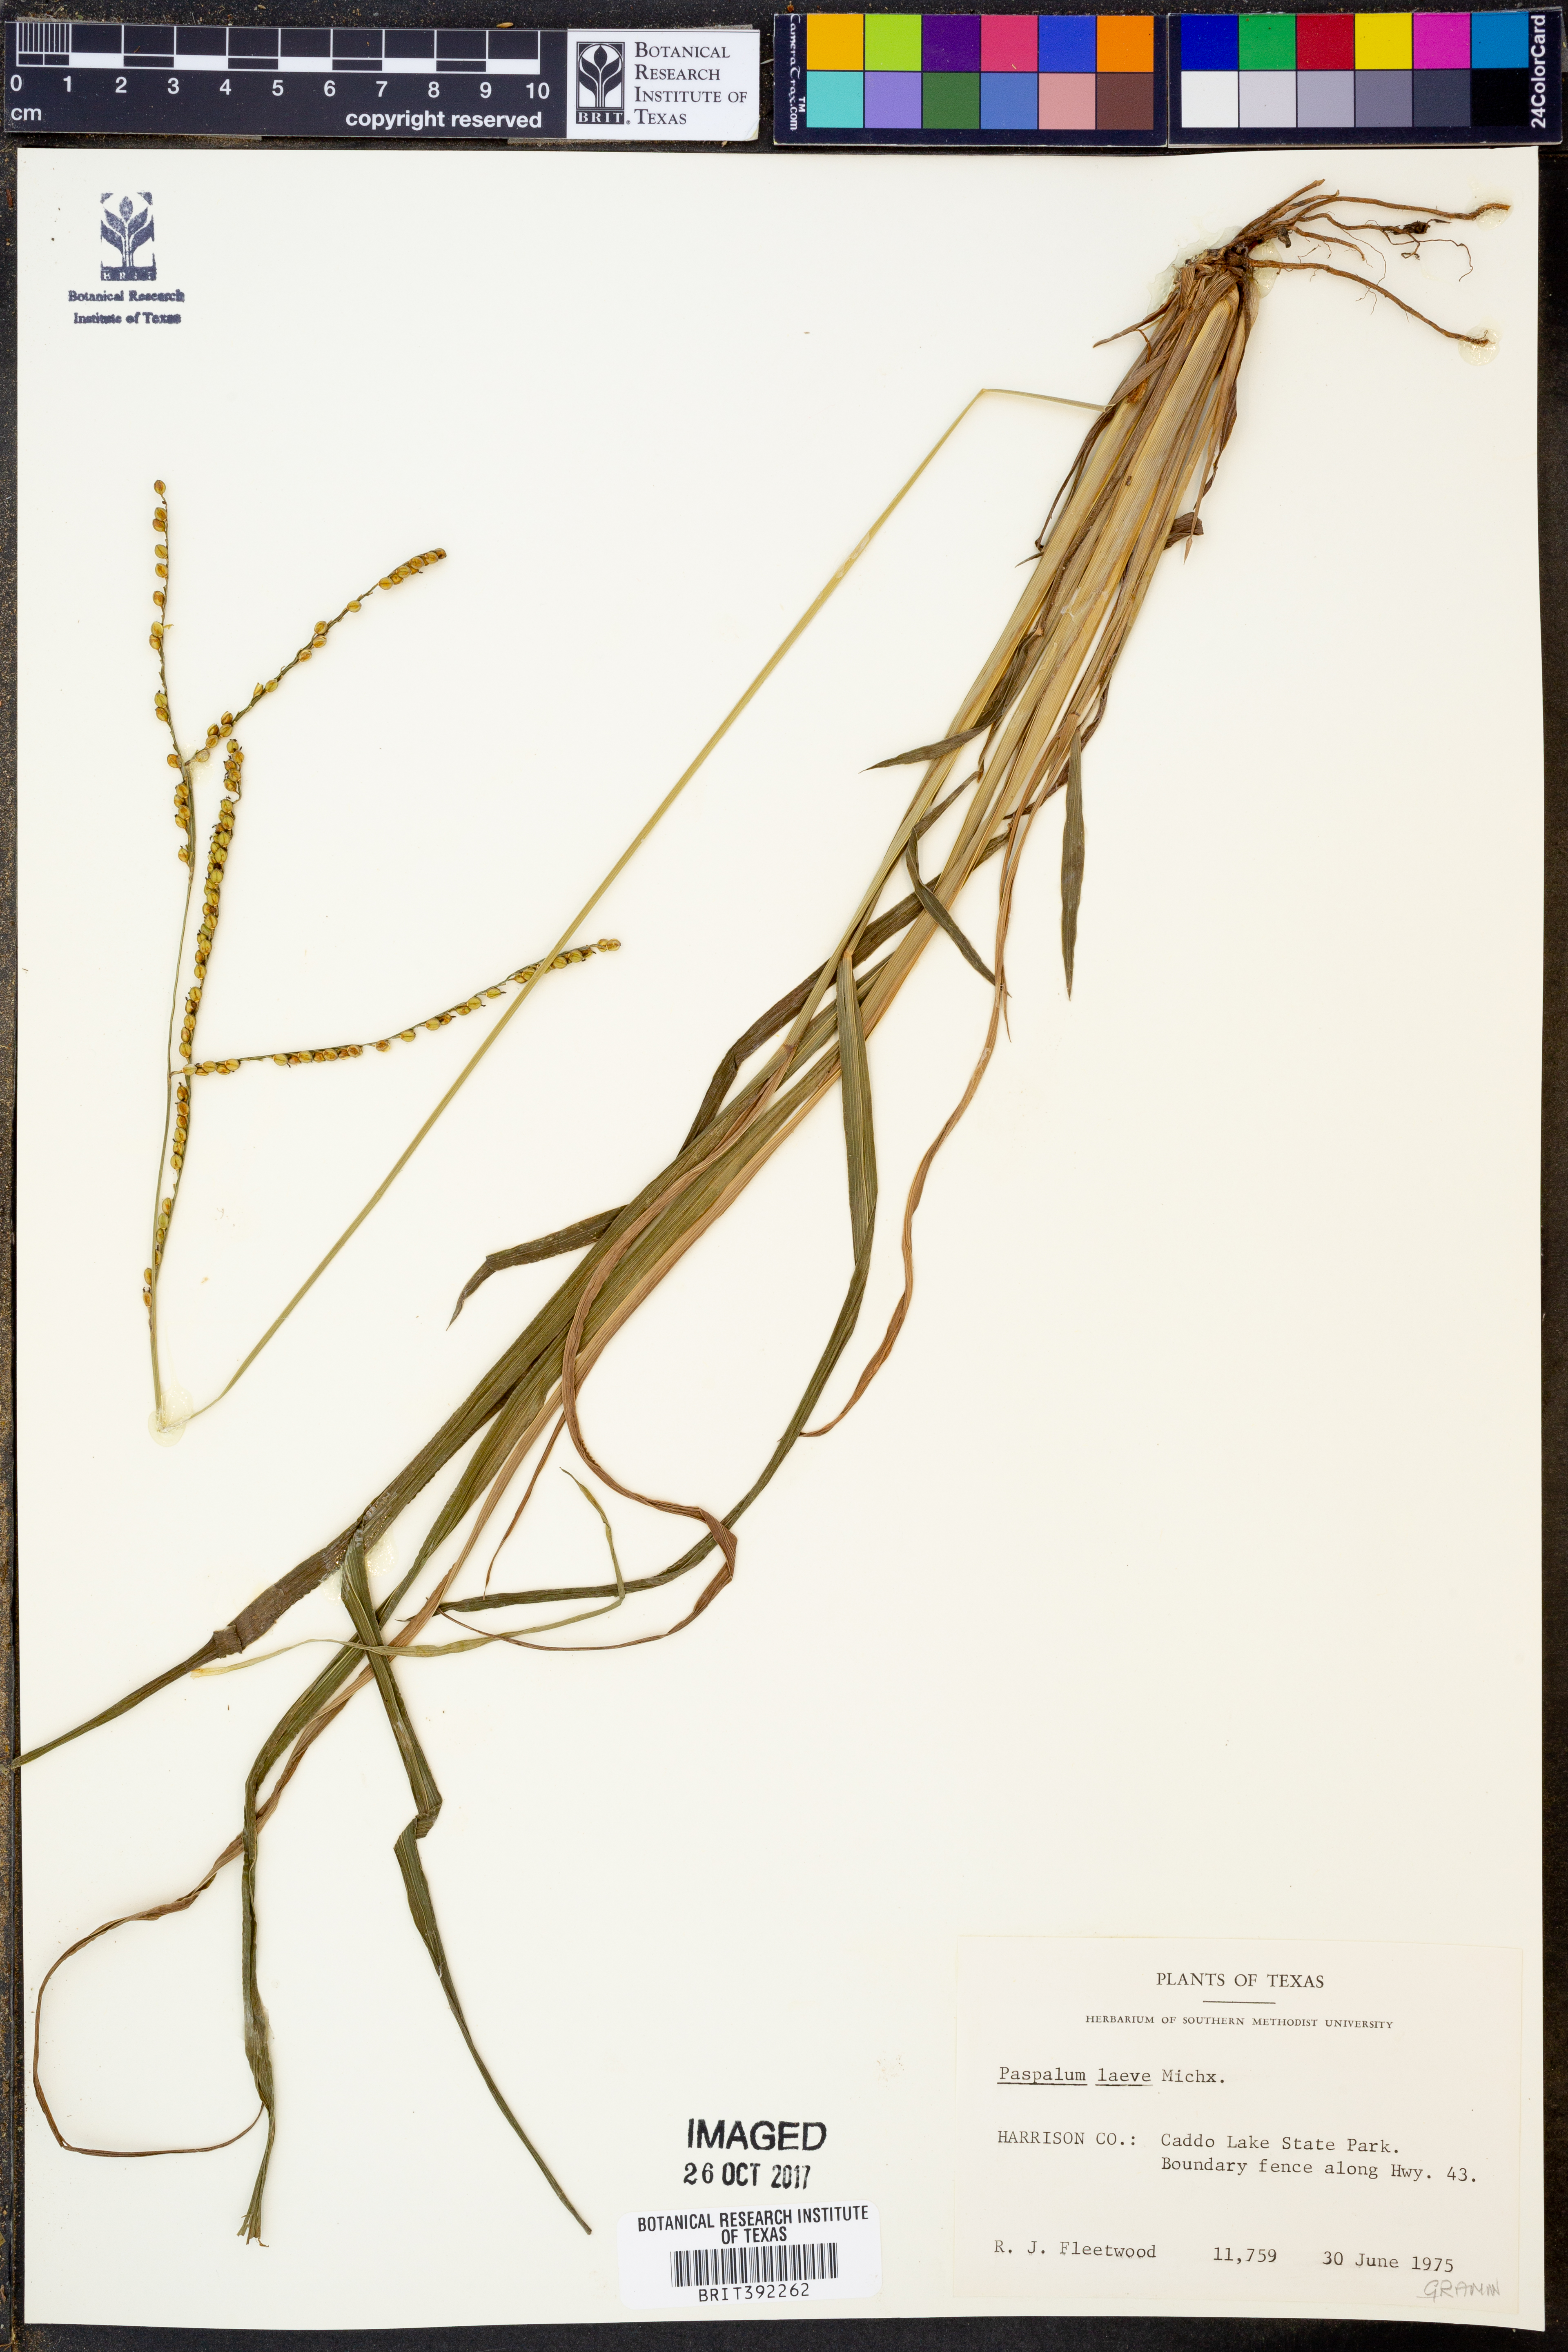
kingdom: Plantae
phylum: Tracheophyta
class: Liliopsida
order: Poales
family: Poaceae
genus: Paspalum
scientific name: Paspalum laeve
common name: Field paspalum
